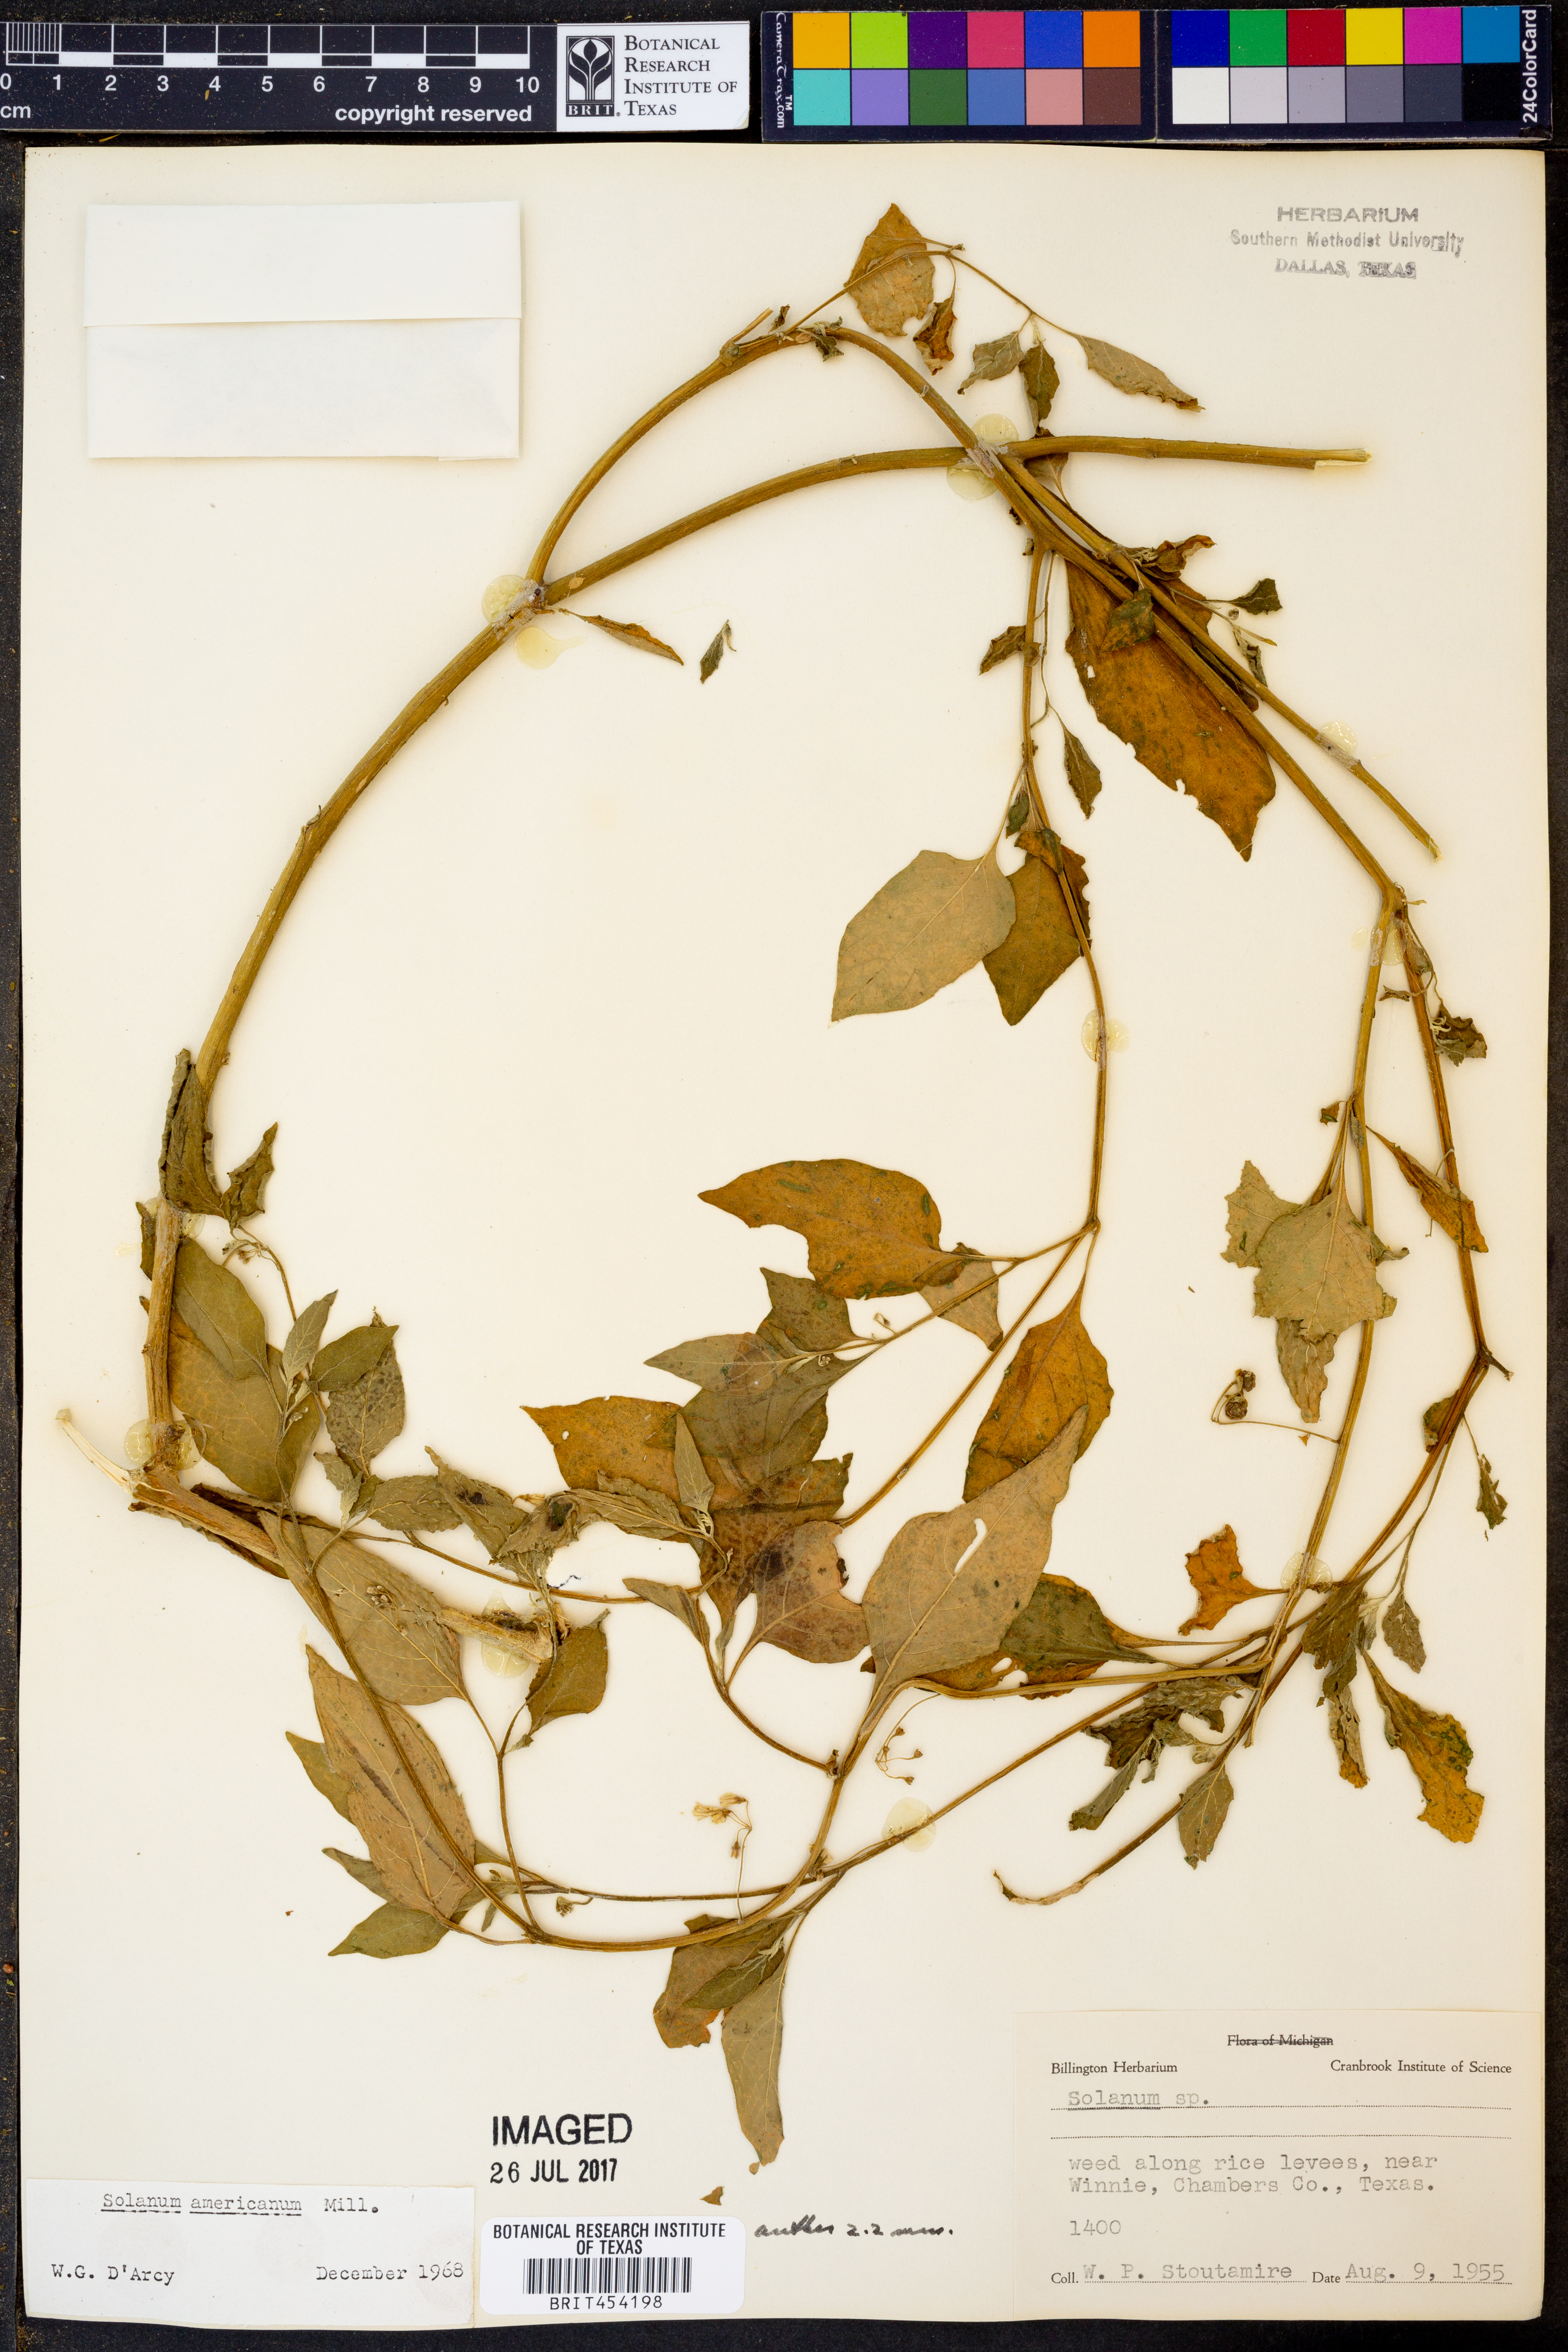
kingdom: Plantae
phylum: Tracheophyta
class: Magnoliopsida
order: Solanales
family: Solanaceae
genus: Solanum
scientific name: Solanum americanum
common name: American black nightshade
